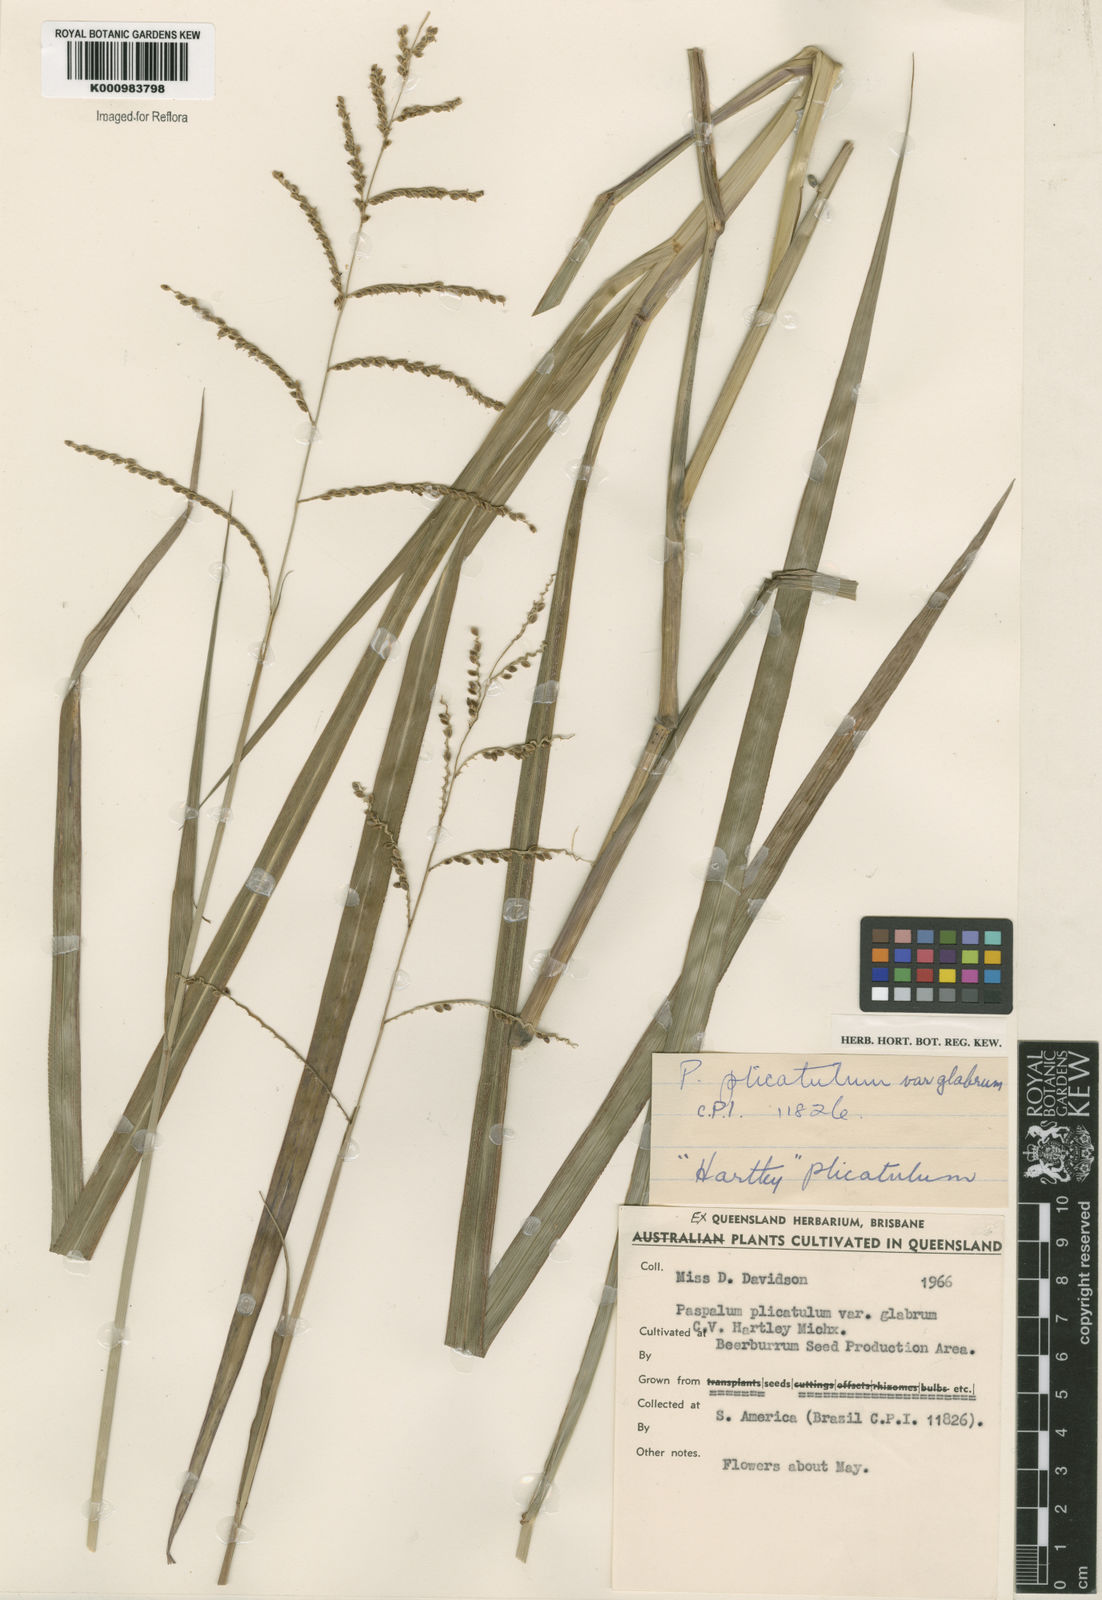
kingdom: Plantae
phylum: Tracheophyta
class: Liliopsida
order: Poales
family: Poaceae
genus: Paspalum
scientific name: Paspalum plicatulum
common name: Top paspalum
